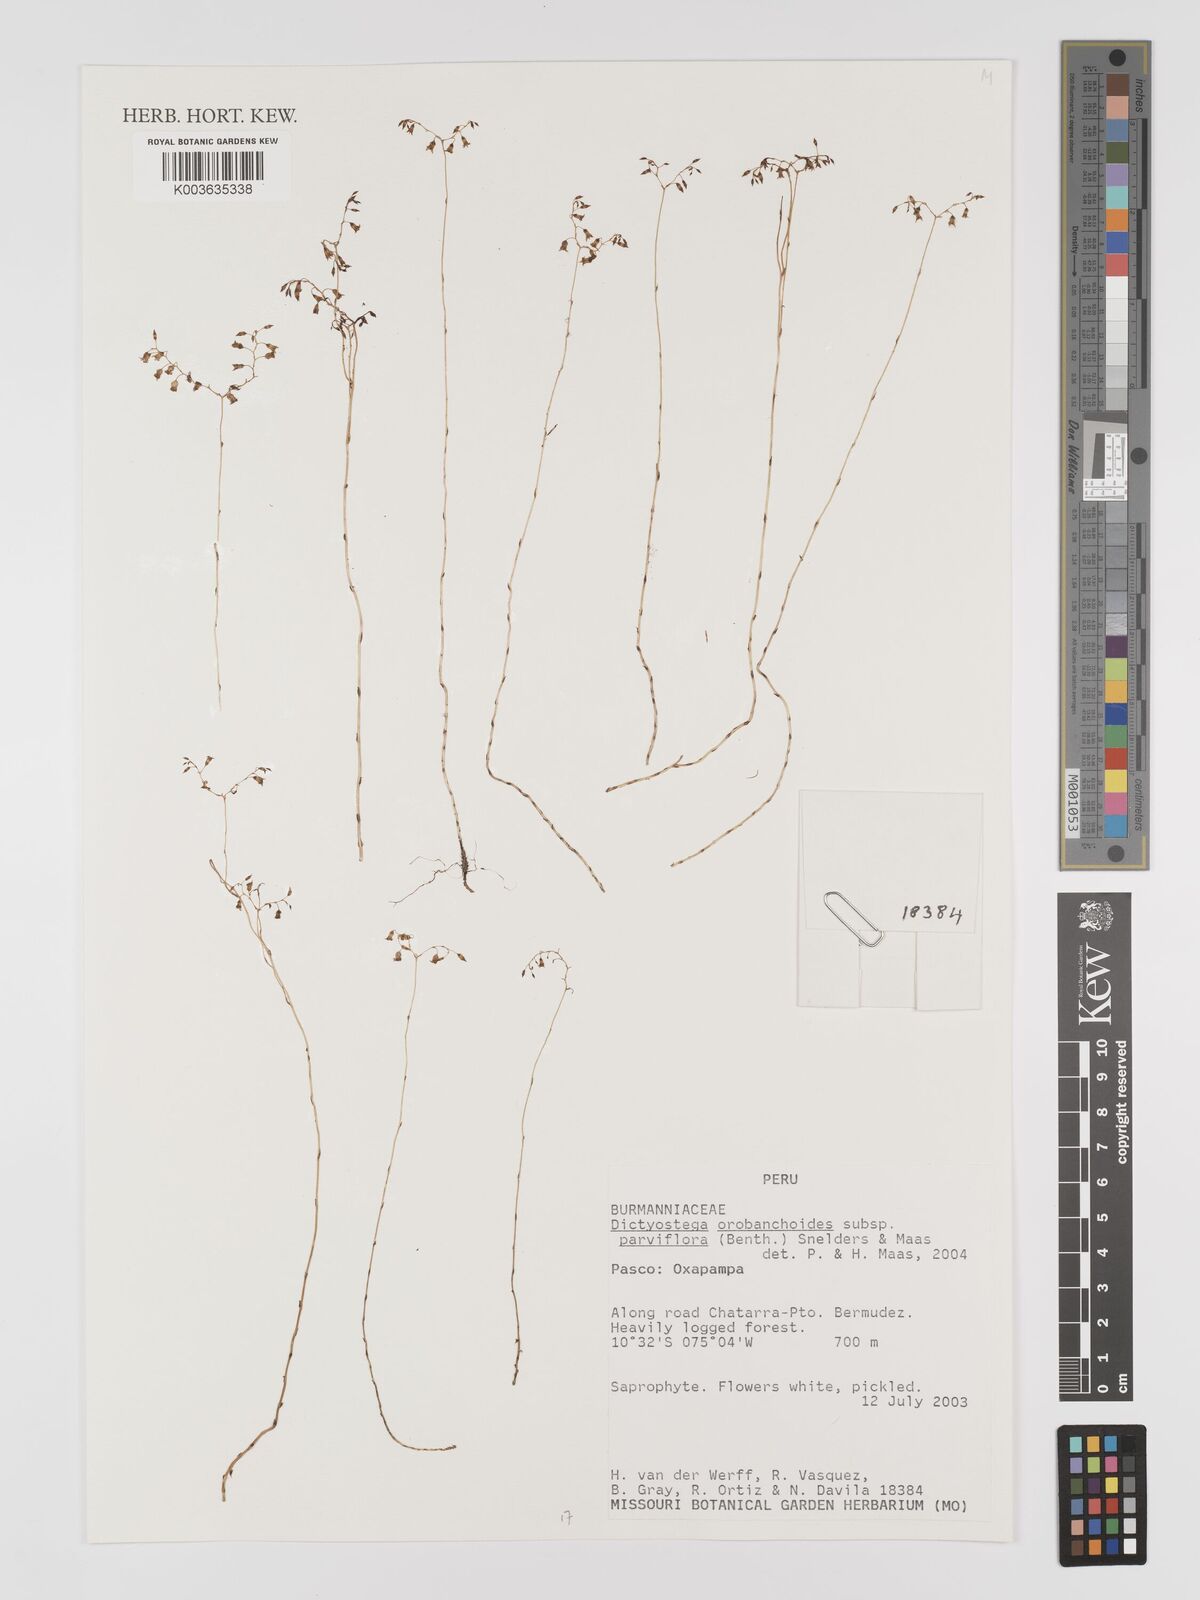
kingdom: Plantae
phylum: Tracheophyta
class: Liliopsida
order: Dioscoreales
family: Burmanniaceae
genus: Dictyostega
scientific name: Dictyostega orobanchoides
